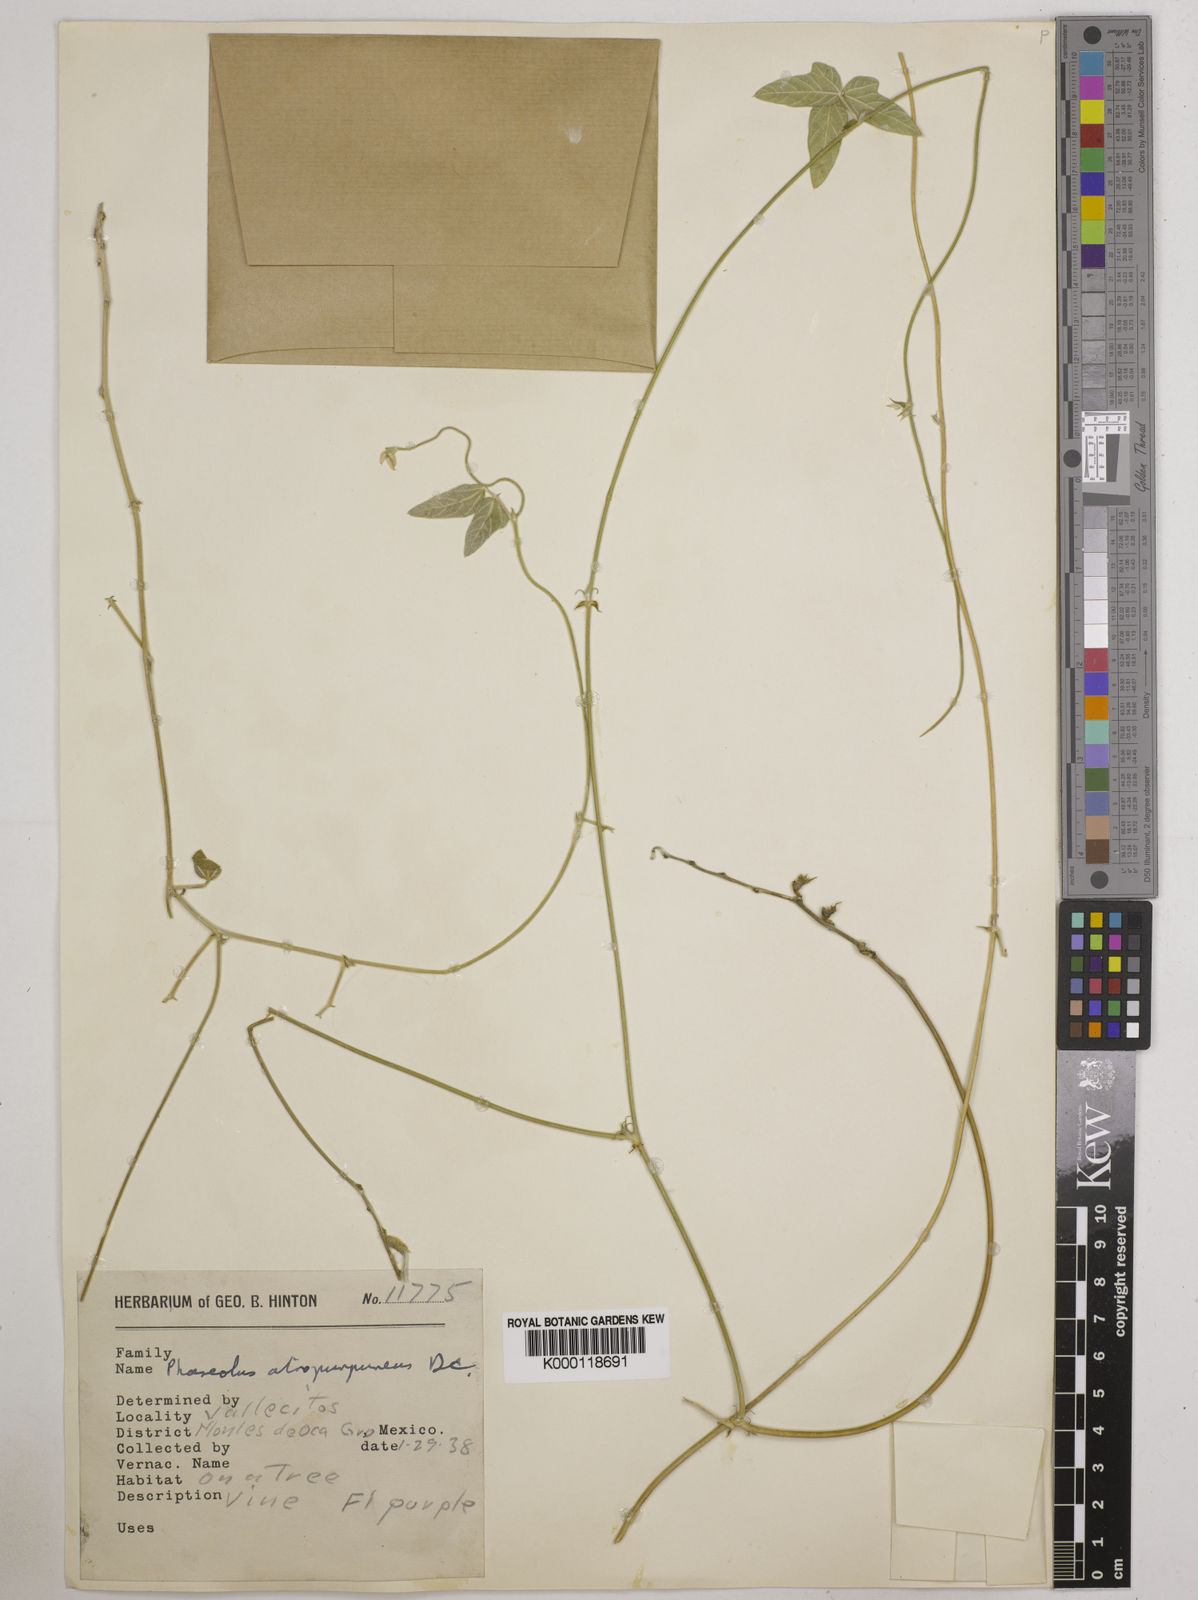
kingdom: Plantae
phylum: Tracheophyta
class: Magnoliopsida
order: Fabales
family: Fabaceae
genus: Macroptilium
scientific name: Macroptilium atropurpureum
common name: Purple bushbean
